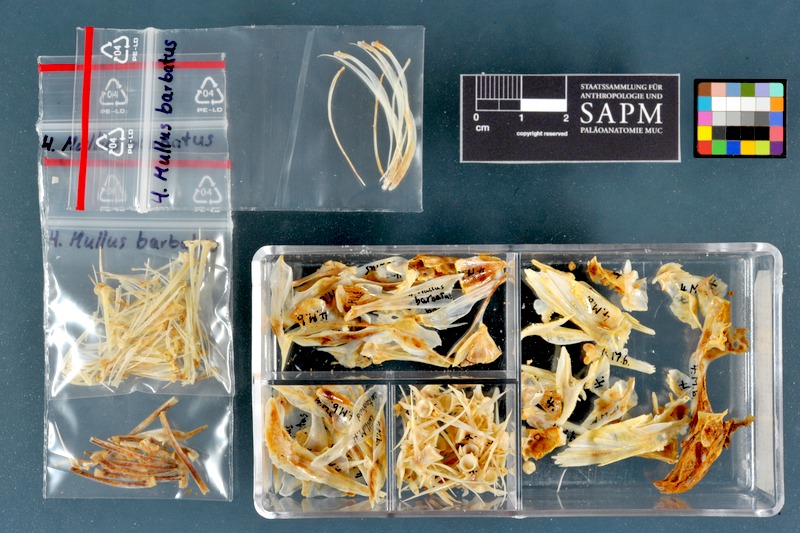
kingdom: Animalia
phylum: Chordata
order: Perciformes
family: Mullidae
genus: Mullus
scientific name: Mullus barbatus
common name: Blunt-snouted mullet
